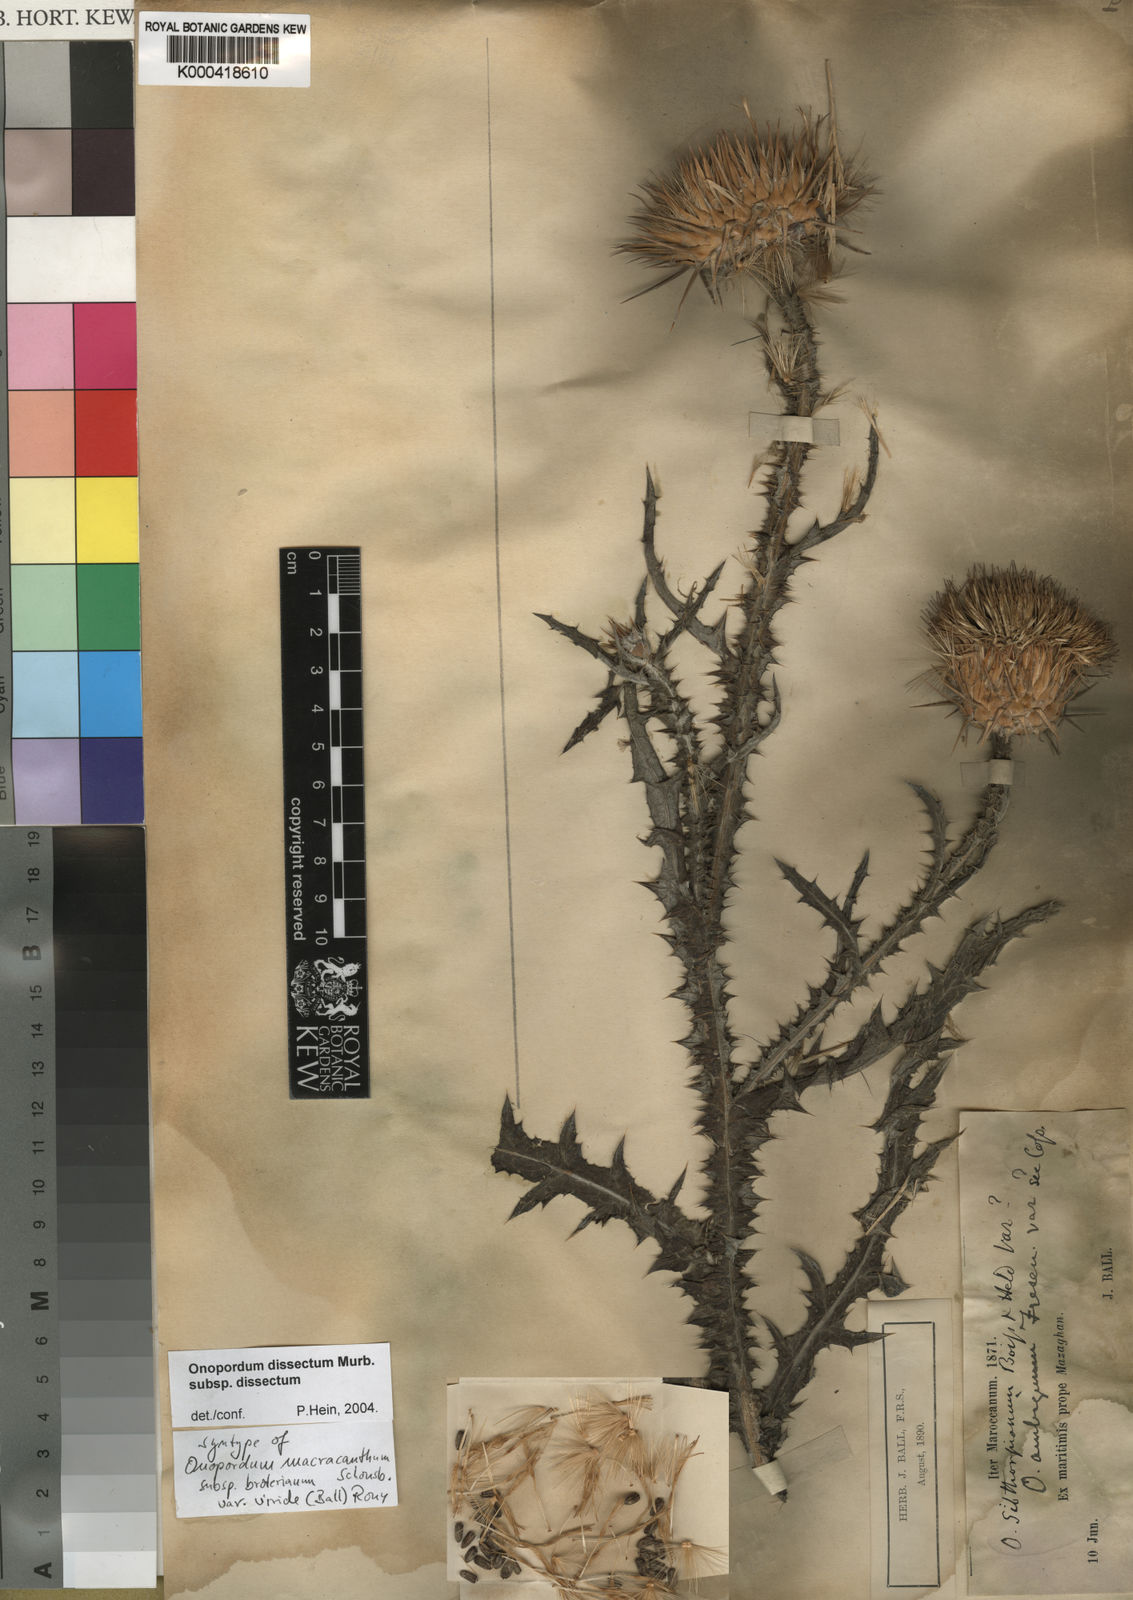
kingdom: Plantae
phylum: Tracheophyta
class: Magnoliopsida
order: Asterales
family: Asteraceae
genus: Onopordum
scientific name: Onopordum dissectum
